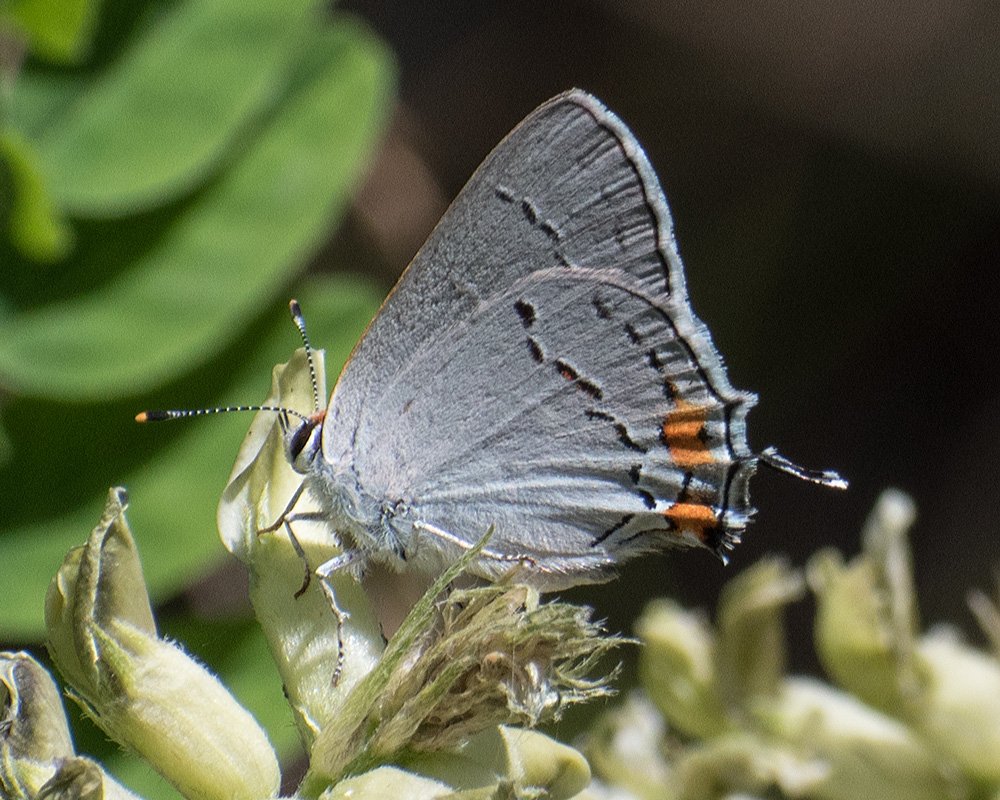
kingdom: Animalia
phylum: Arthropoda
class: Insecta
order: Lepidoptera
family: Lycaenidae
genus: Strymon
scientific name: Strymon melinus
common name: Gray Hairstreak
